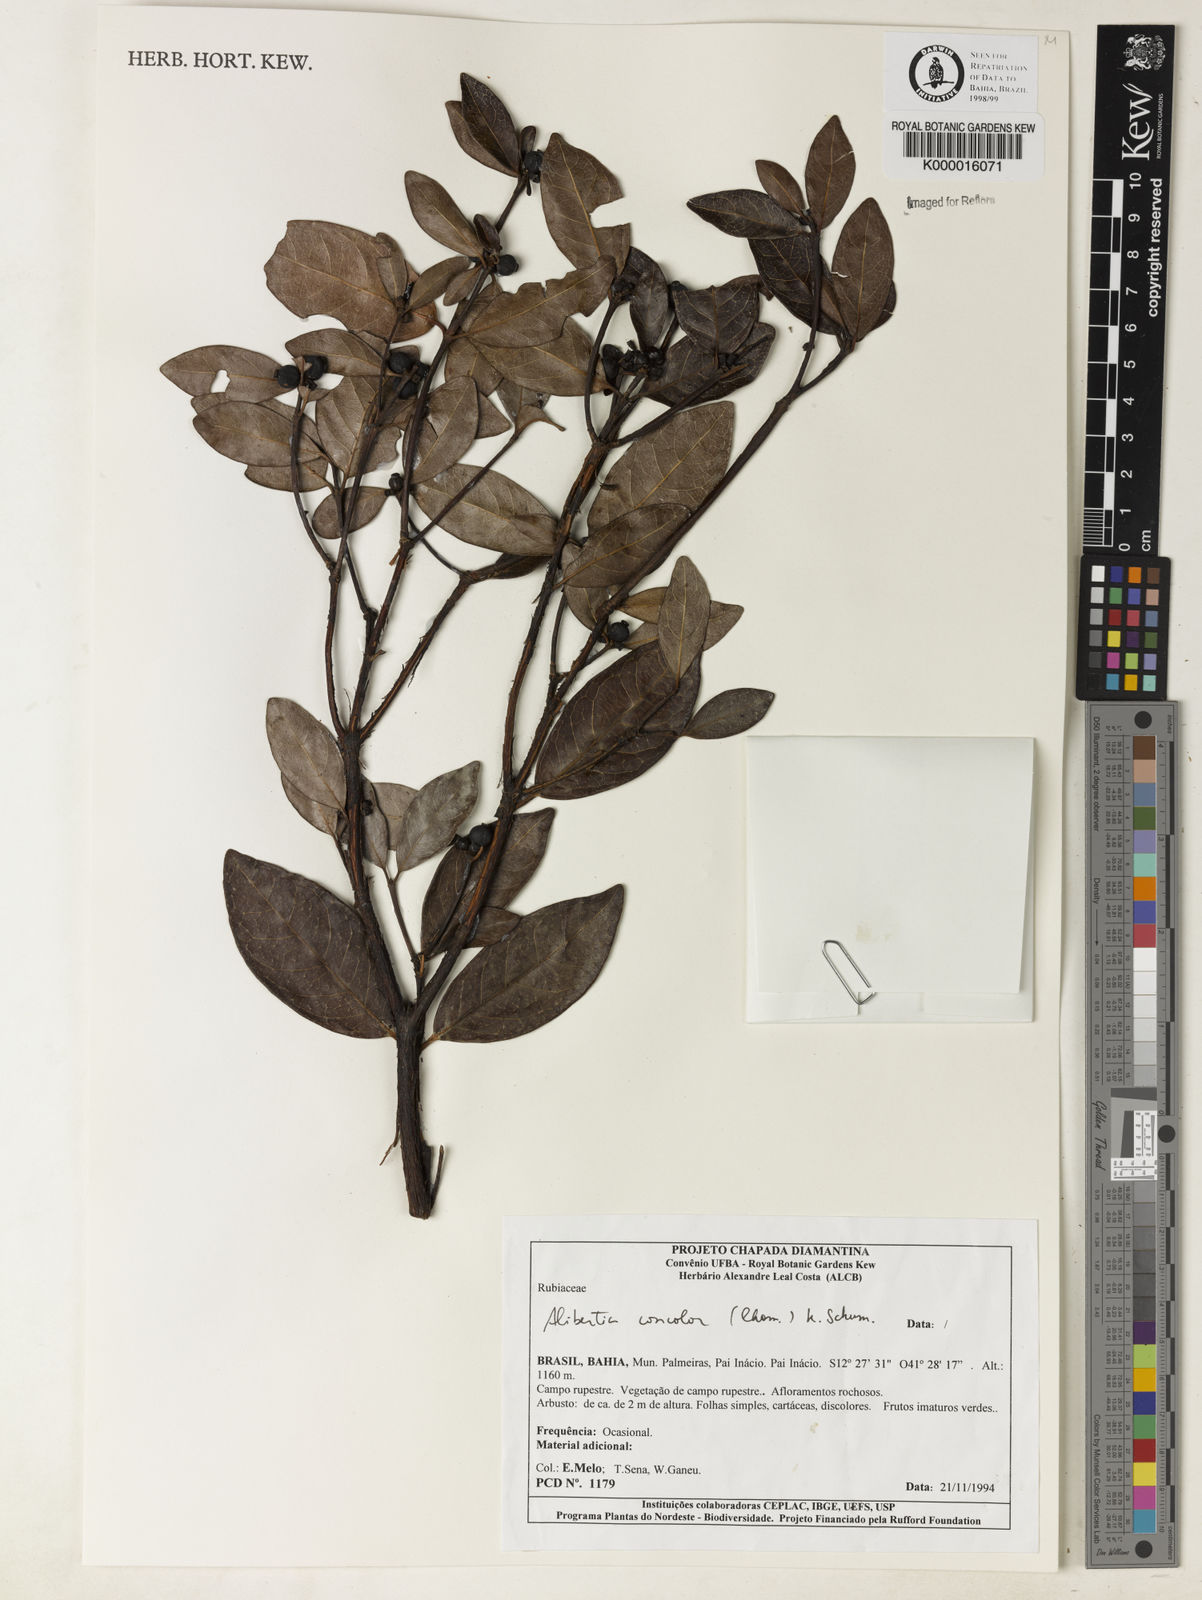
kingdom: Plantae
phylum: Tracheophyta
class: Magnoliopsida
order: Gentianales
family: Rubiaceae
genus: Cordiera
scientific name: Cordiera concolor
